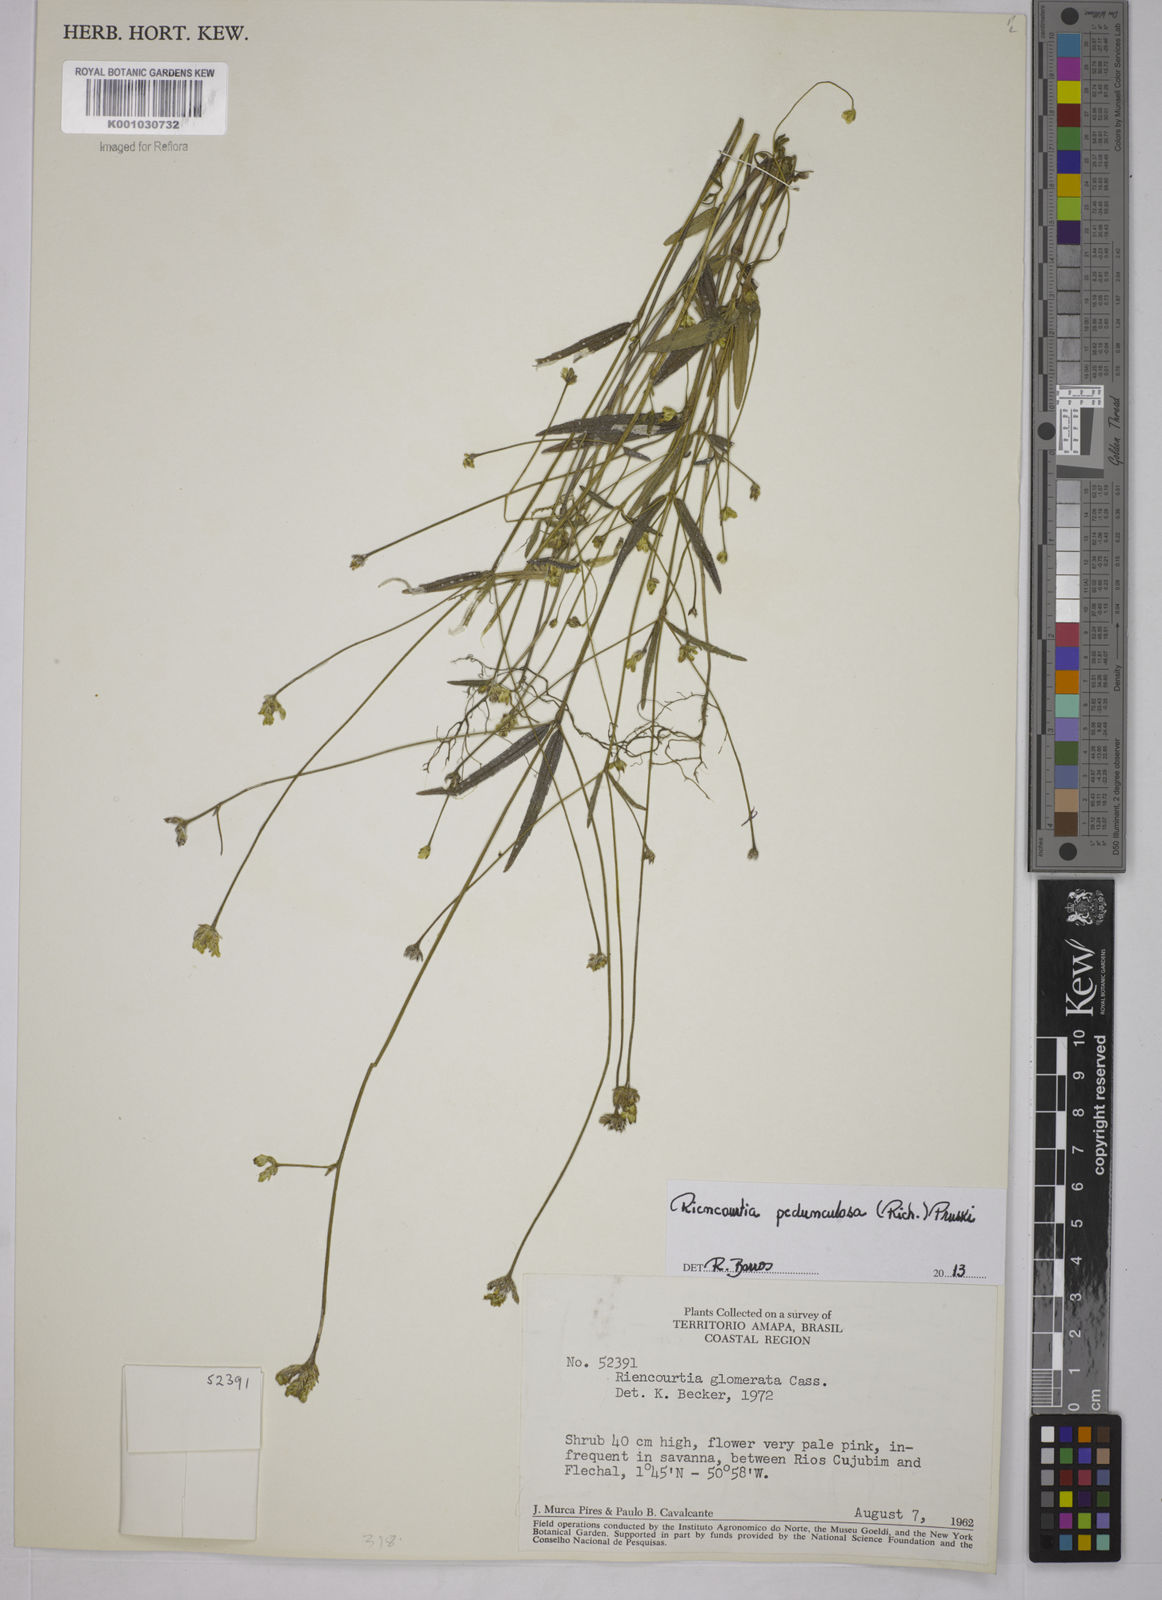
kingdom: Plantae
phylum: Tracheophyta
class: Magnoliopsida
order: Asterales
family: Asteraceae
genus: Riencourtia
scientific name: Riencourtia pedunculosa
